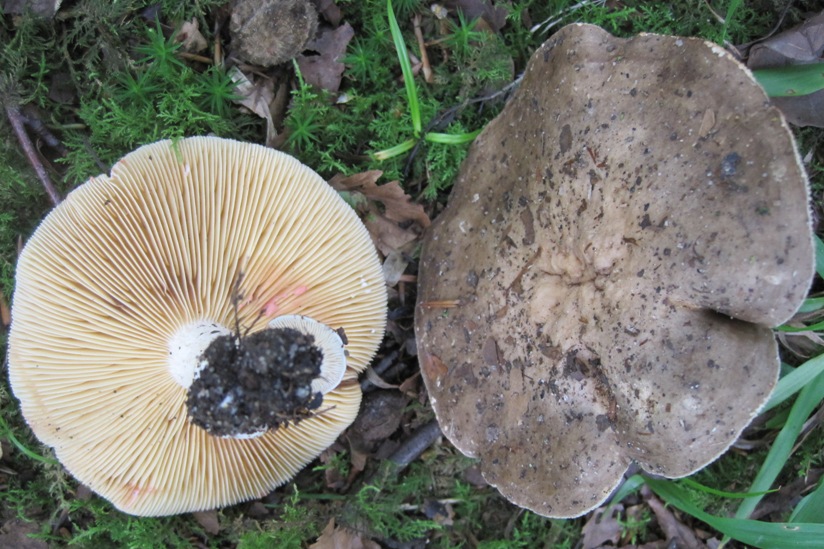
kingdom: Fungi
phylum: Basidiomycota
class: Agaricomycetes
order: Russulales
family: Russulaceae
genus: Lactarius
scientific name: Lactarius acris
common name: rosamælket mælkehat
